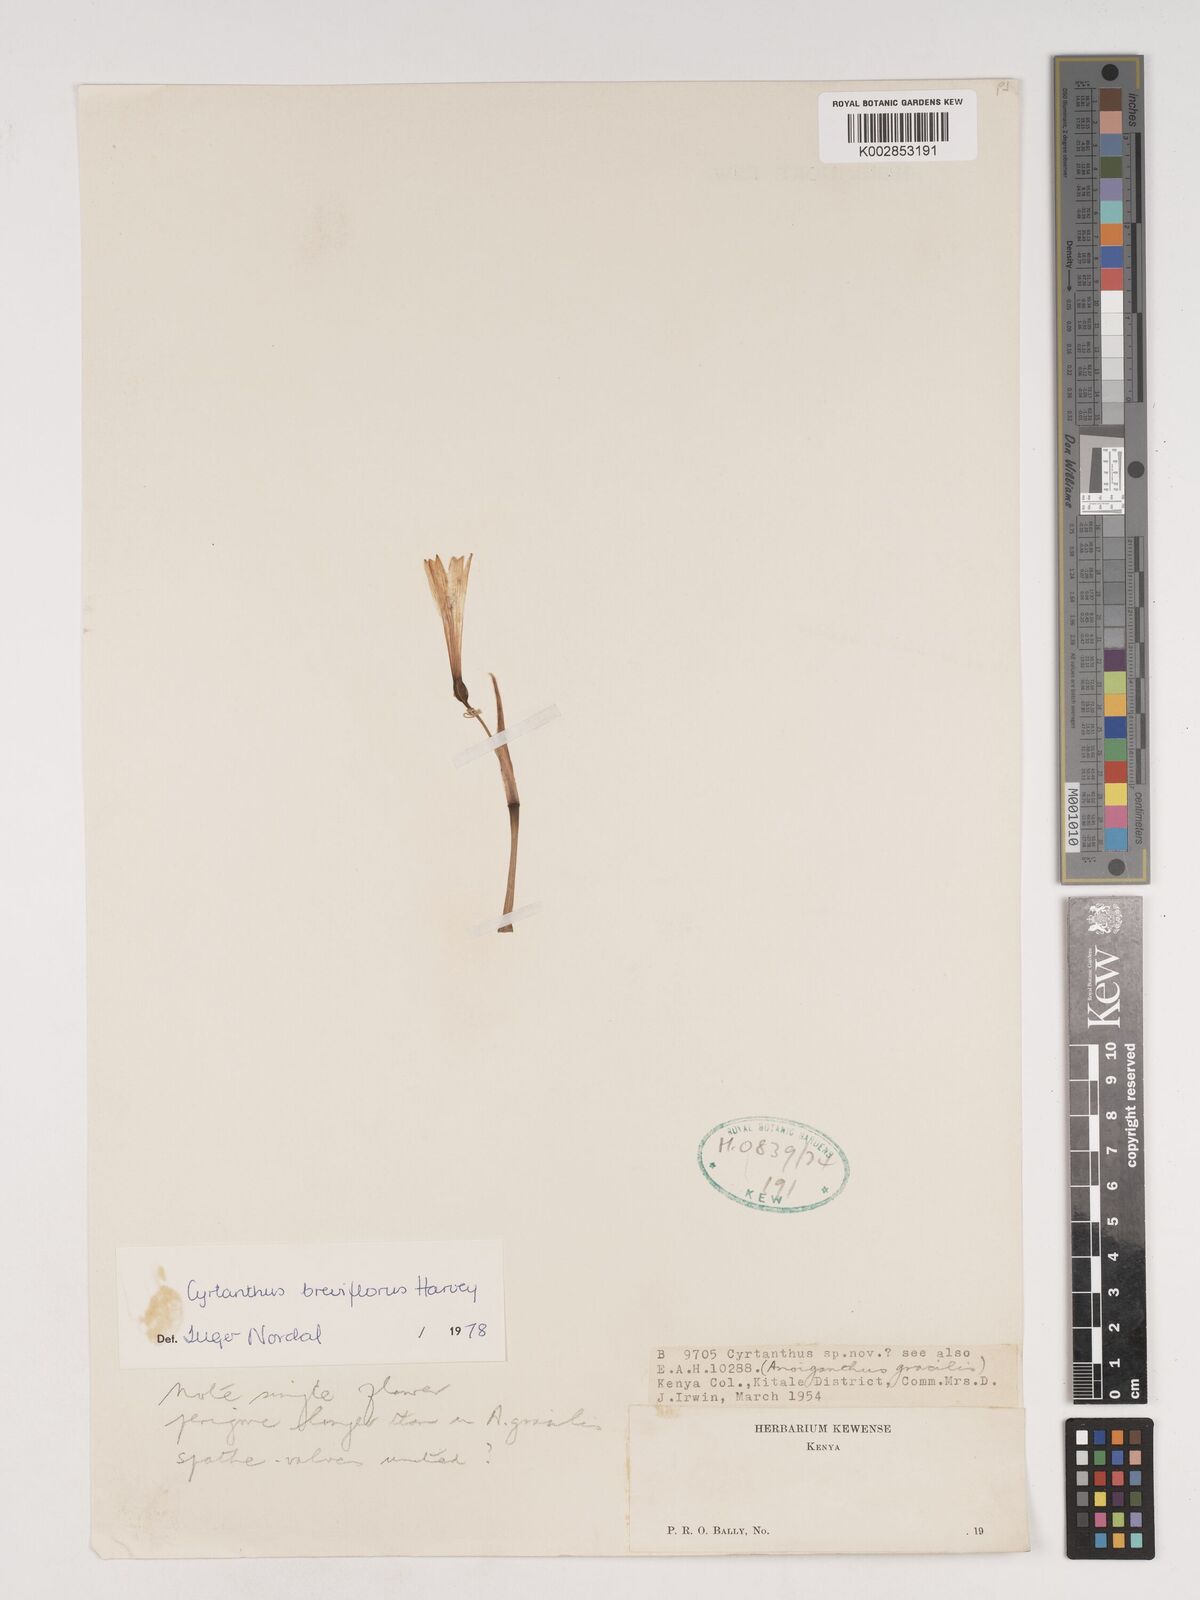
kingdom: Plantae
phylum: Tracheophyta
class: Liliopsida
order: Asparagales
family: Amaryllidaceae
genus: Cyrtanthus
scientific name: Cyrtanthus breviflorus
